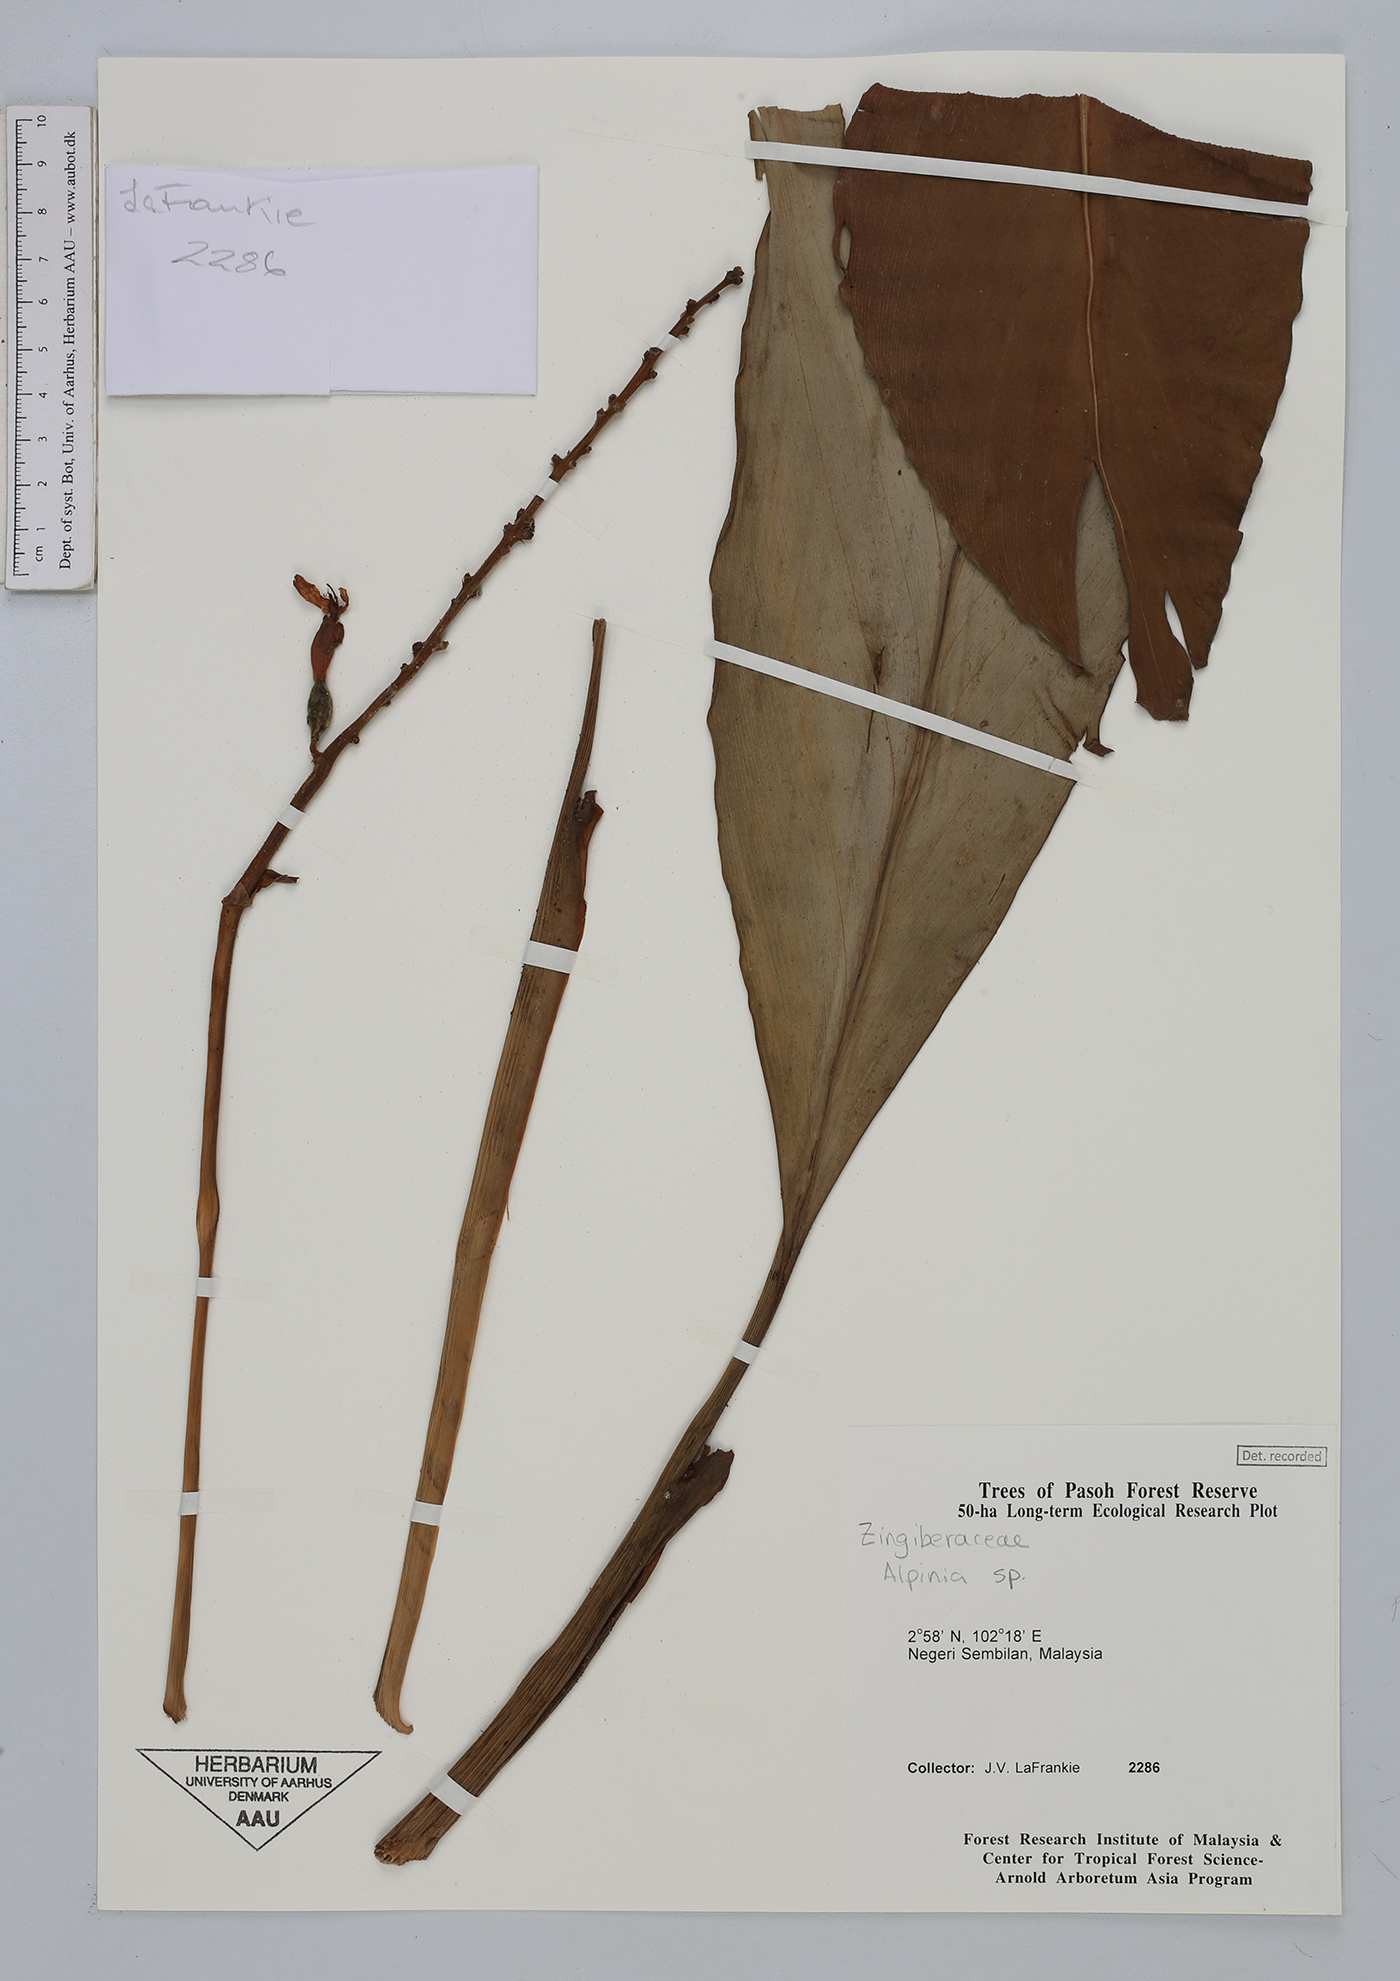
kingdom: Plantae
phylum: Tracheophyta
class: Liliopsida
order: Zingiberales
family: Zingiberaceae
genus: Alpinia
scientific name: Alpinia
